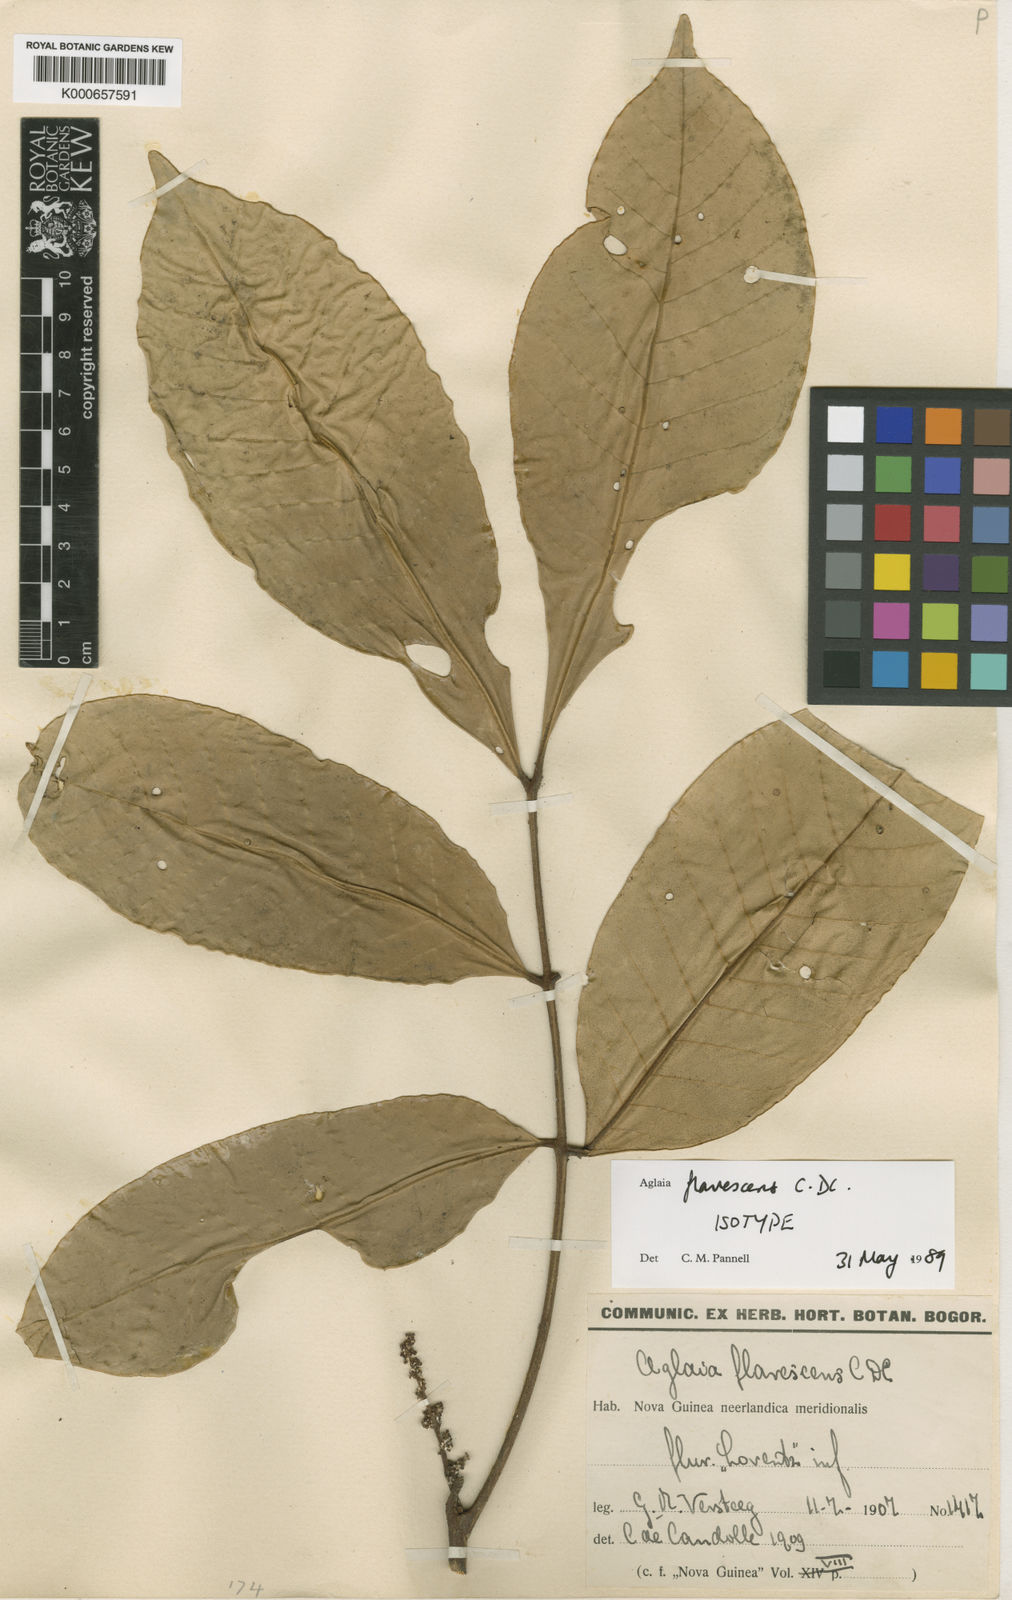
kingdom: Plantae
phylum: Tracheophyta
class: Magnoliopsida
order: Sapindales
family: Meliaceae
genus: Aglaia
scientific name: Aglaia flavescens
